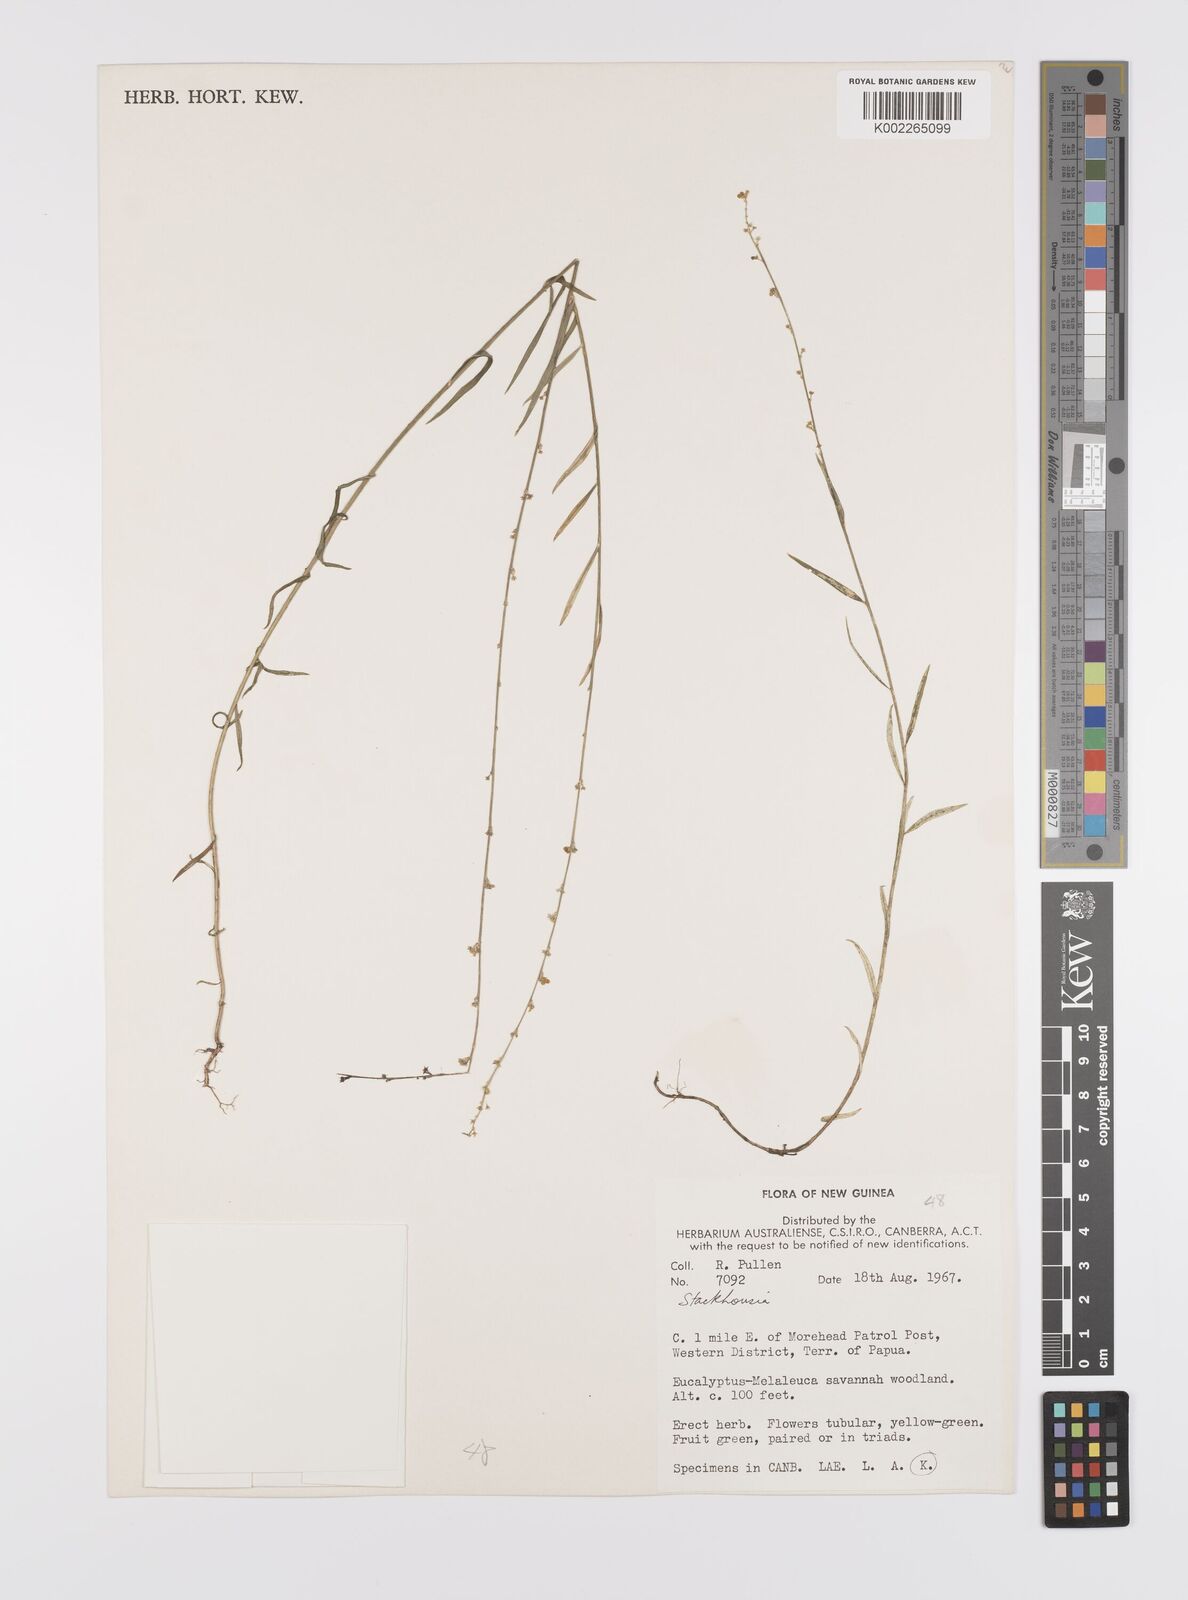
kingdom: Plantae
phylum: Tracheophyta
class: Magnoliopsida
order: Celastrales
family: Celastraceae
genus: Stackhousia
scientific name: Stackhousia
